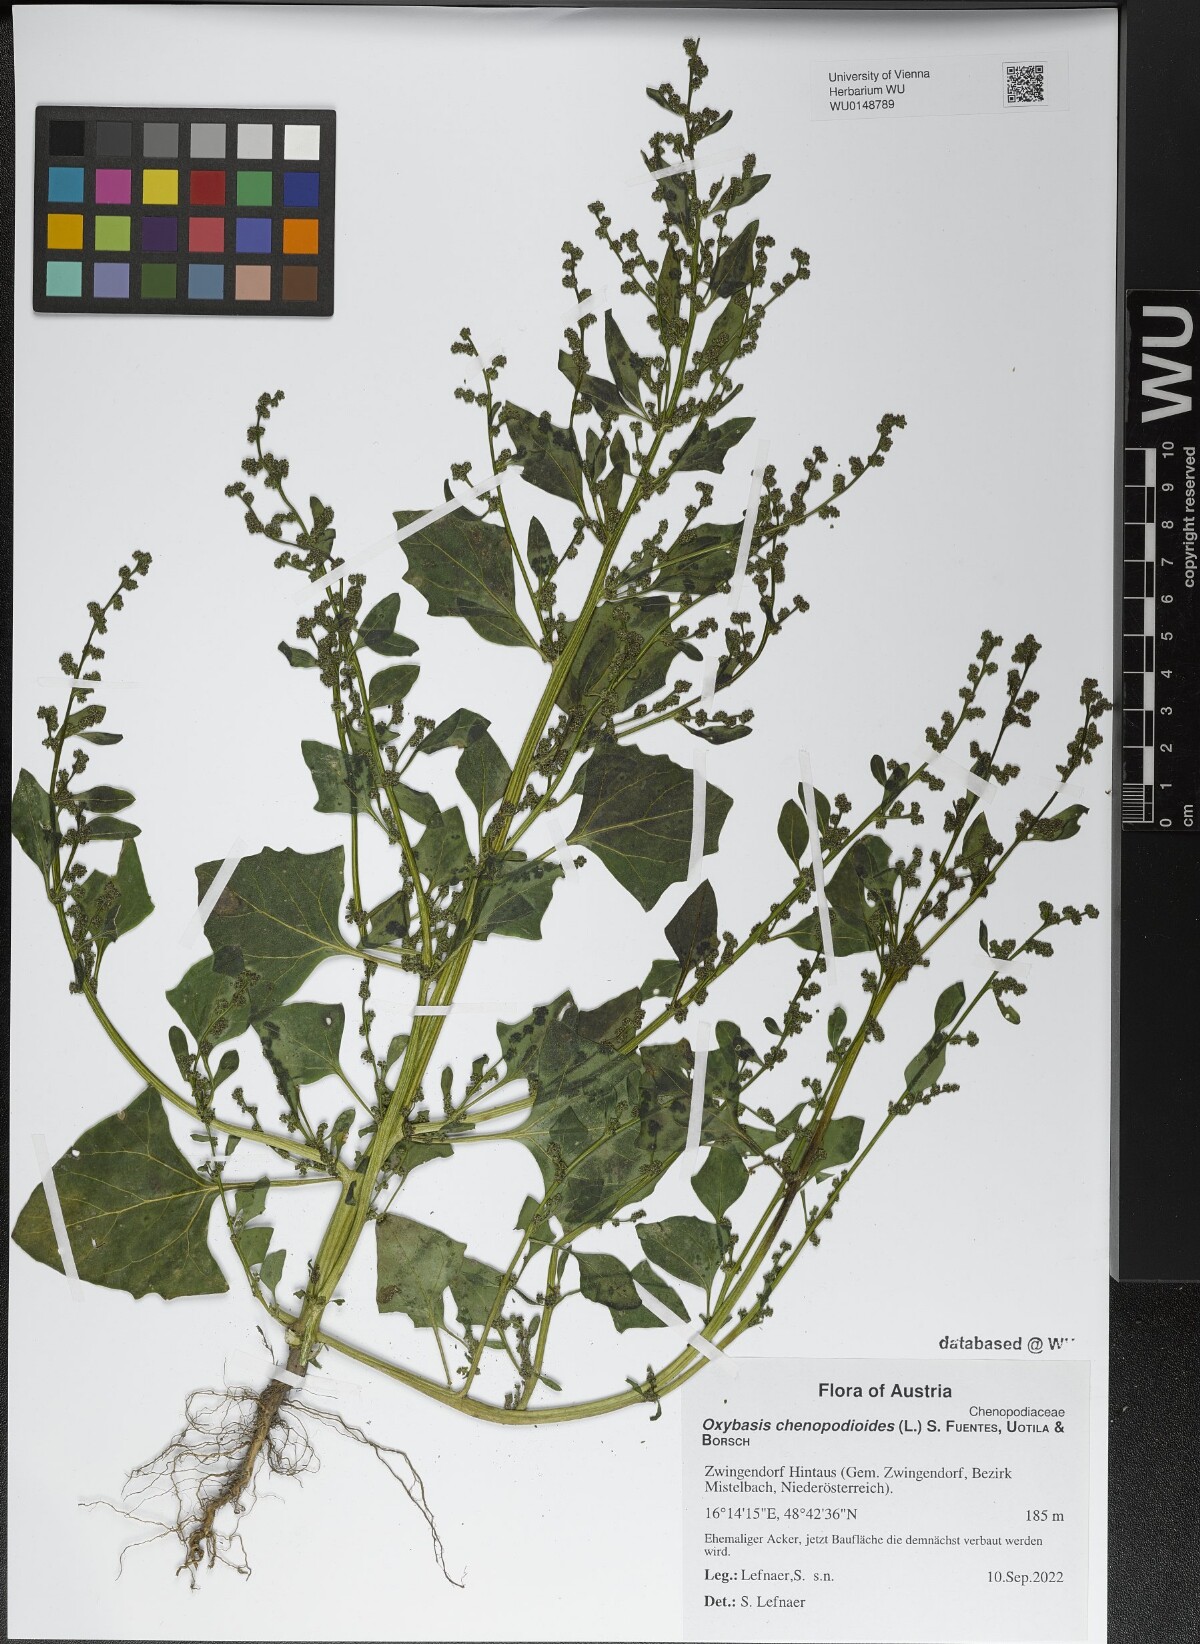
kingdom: Plantae
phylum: Tracheophyta
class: Magnoliopsida
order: Caryophyllales
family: Amaranthaceae
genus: Oxybasis
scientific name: Oxybasis chenopodioides
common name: Saltmarsh goosefoot
